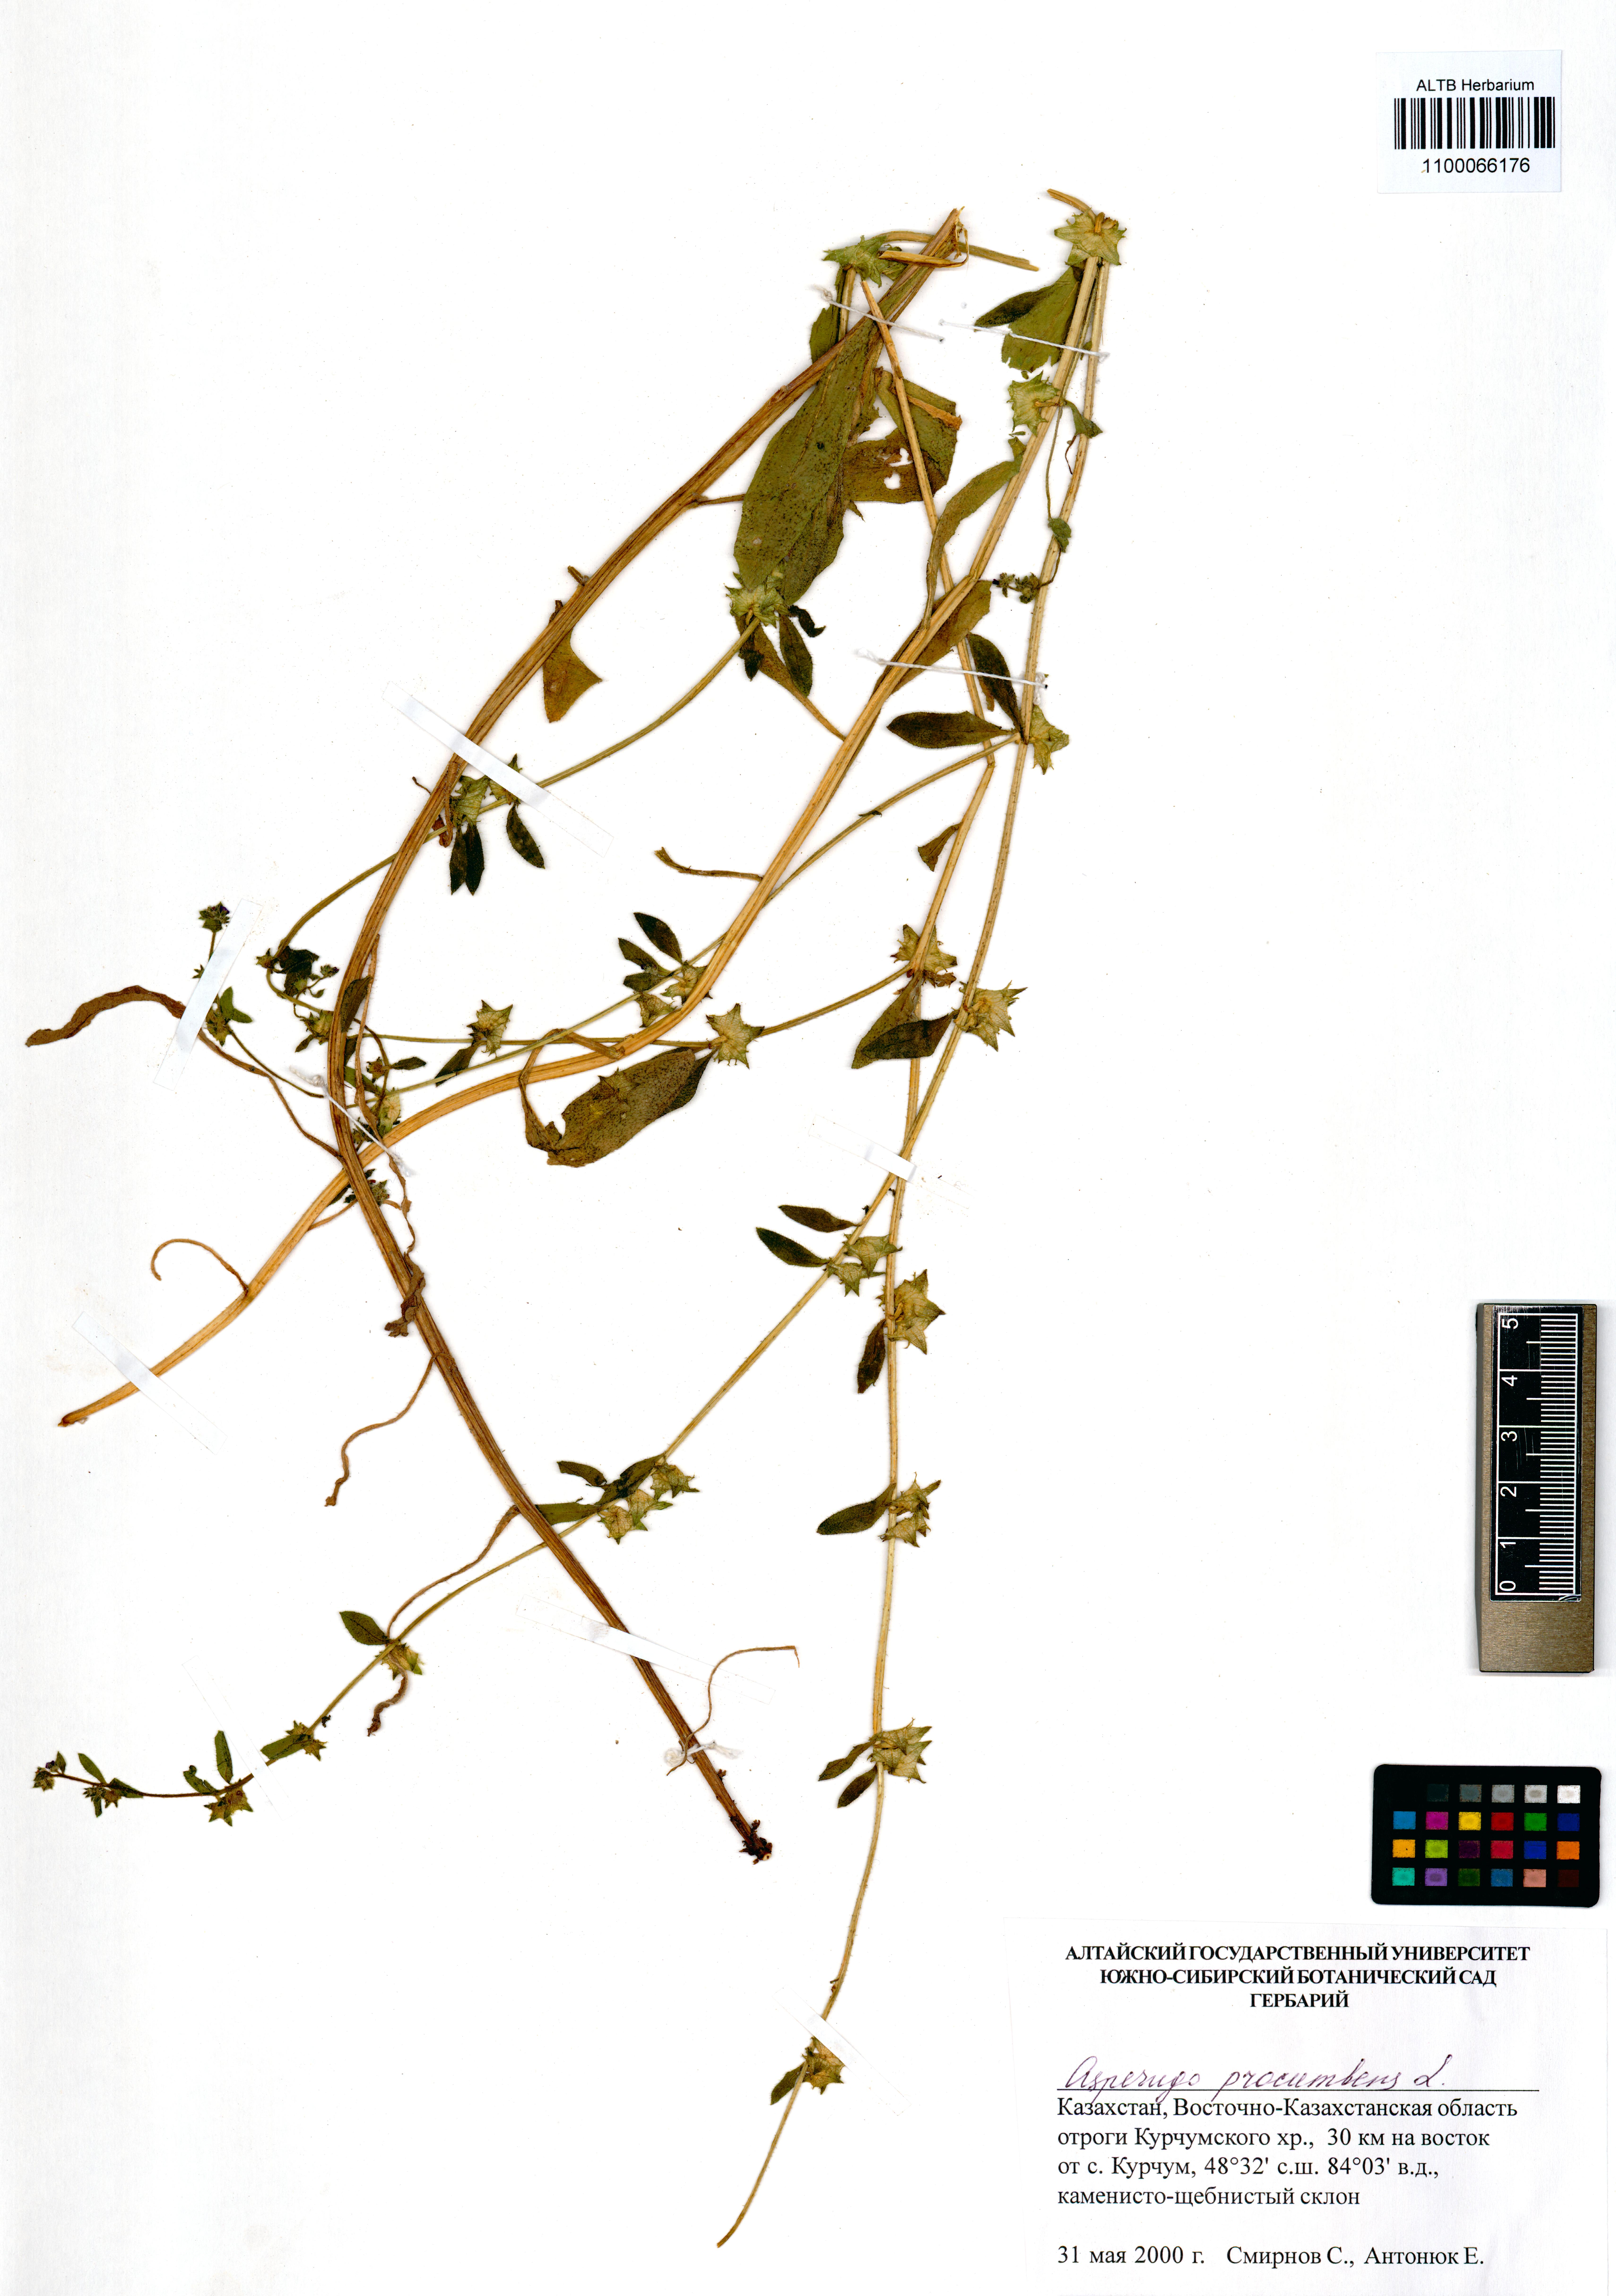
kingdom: Plantae
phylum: Tracheophyta
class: Magnoliopsida
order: Boraginales
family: Boraginaceae
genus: Asperugo
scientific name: Asperugo procumbens
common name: Madwort
